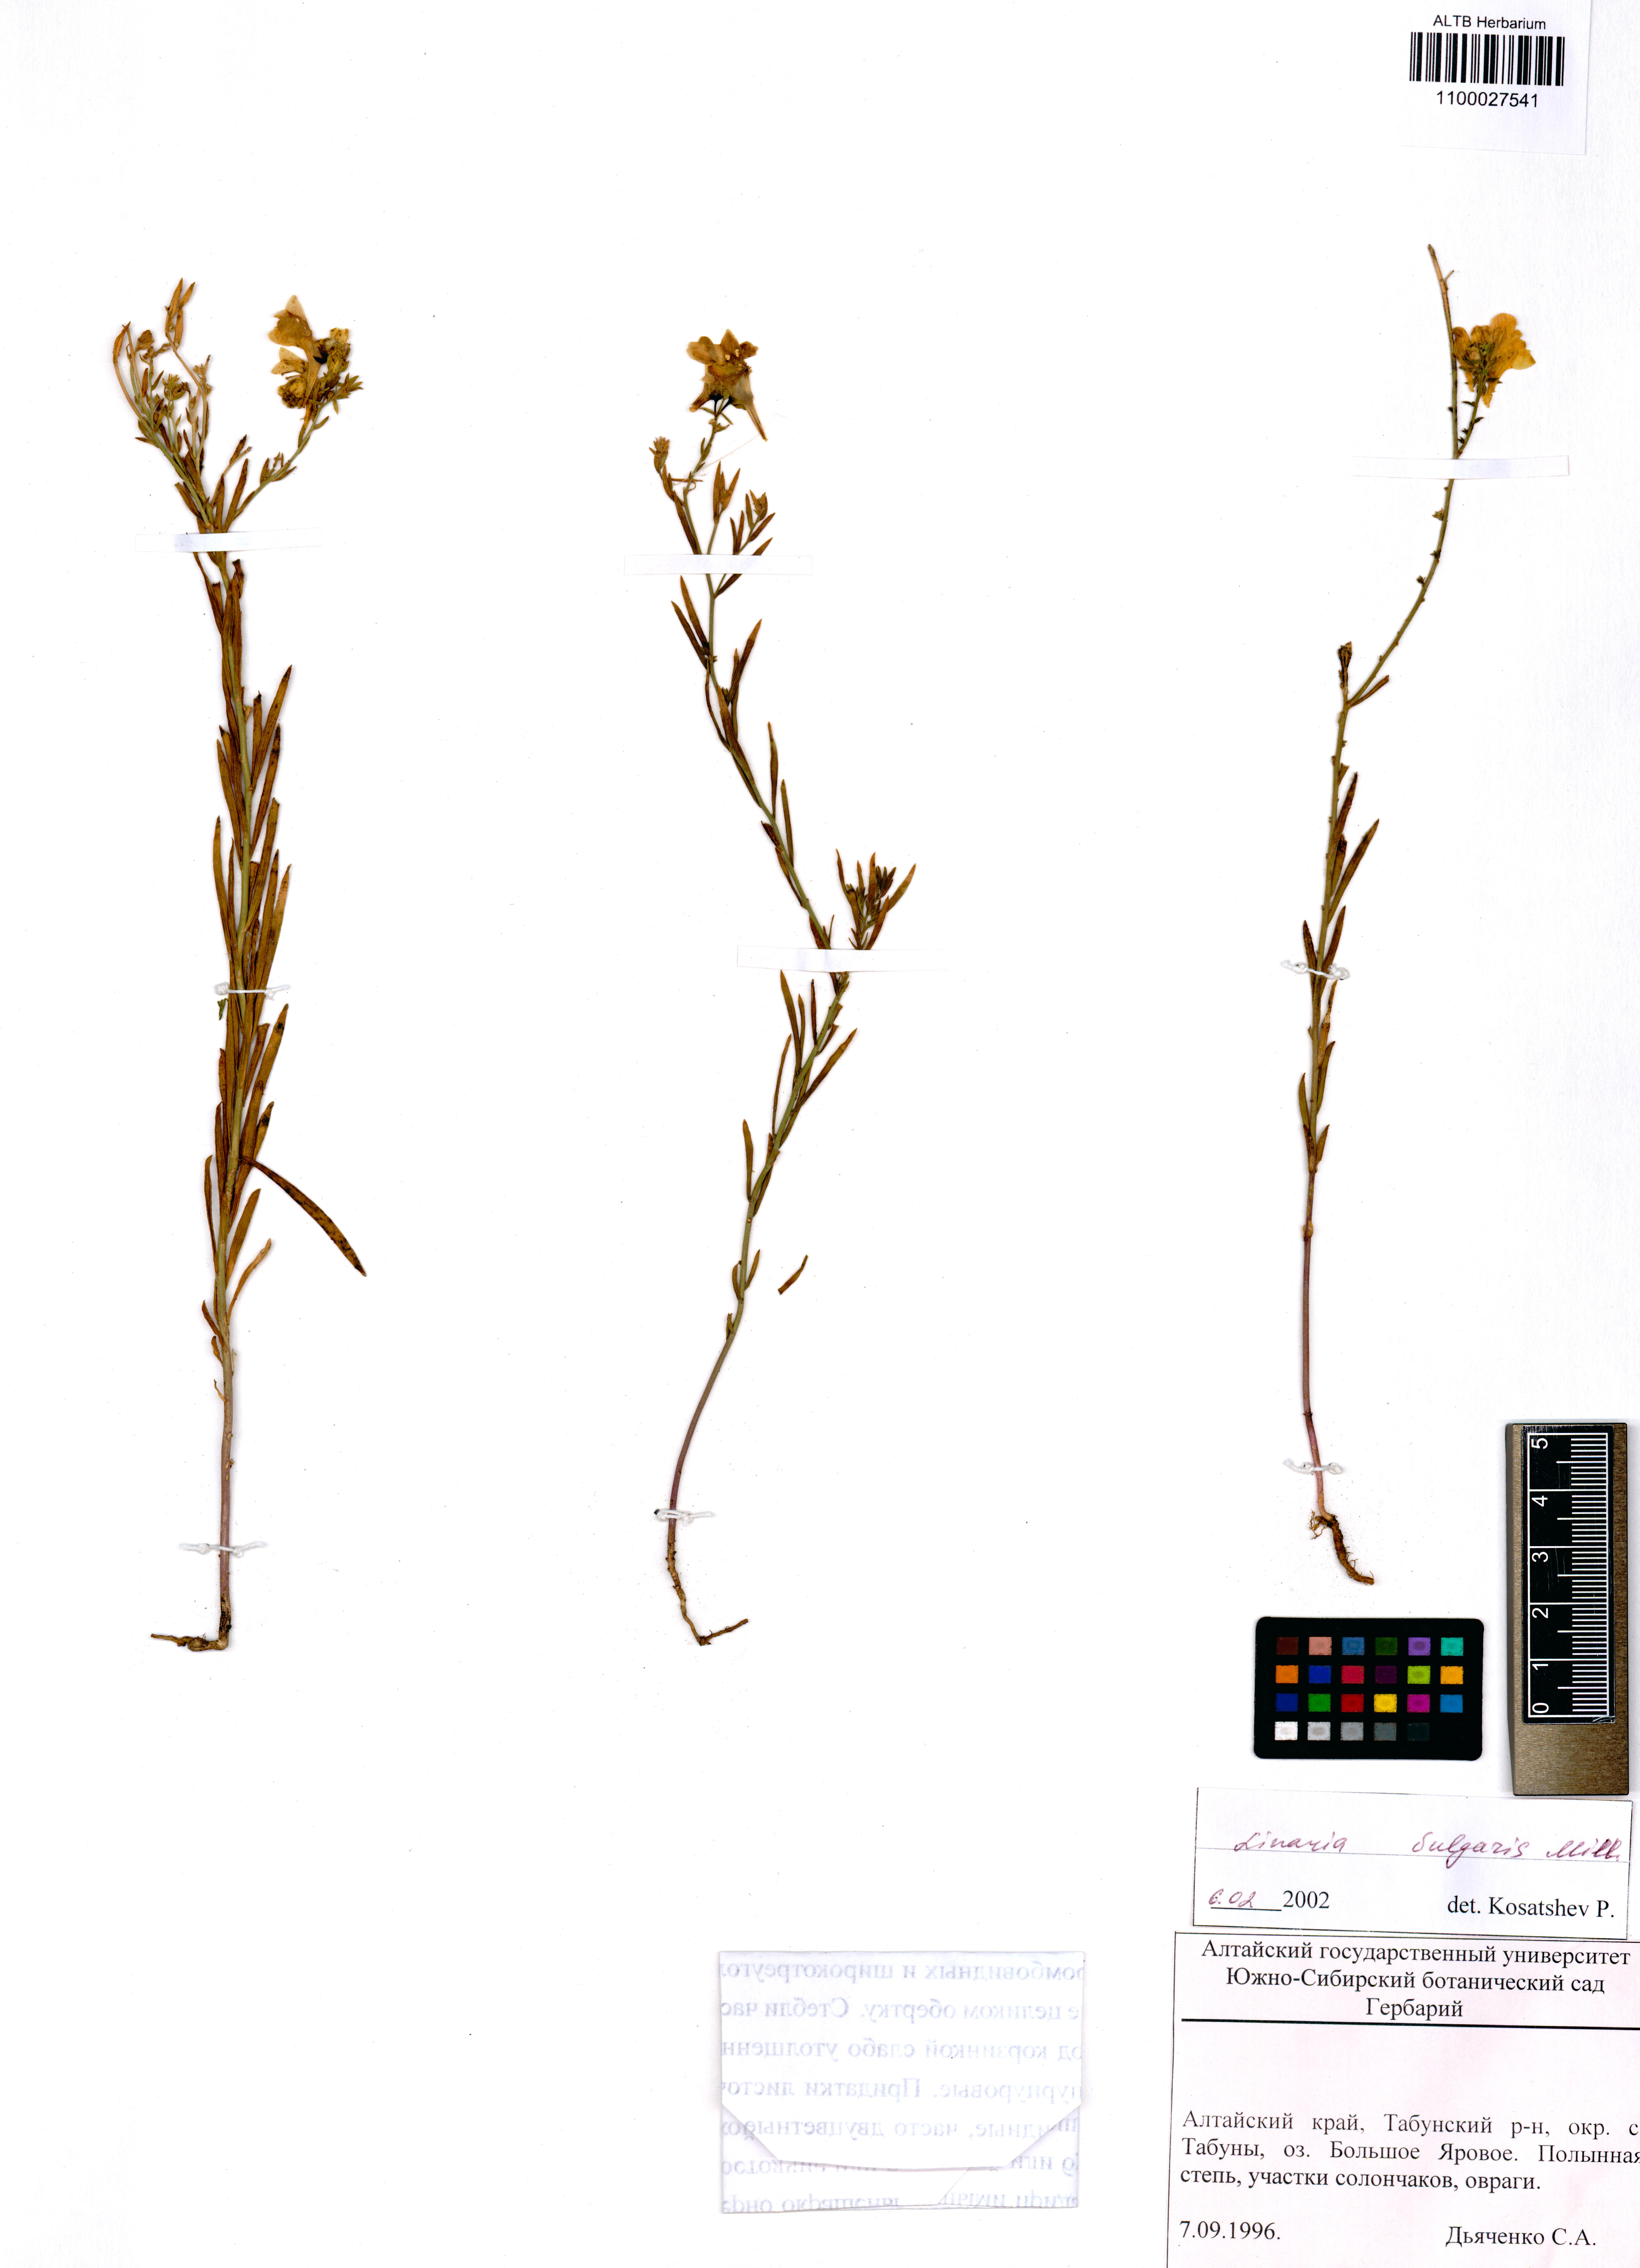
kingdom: Plantae
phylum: Tracheophyta
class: Magnoliopsida
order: Lamiales
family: Plantaginaceae
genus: Linaria
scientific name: Linaria vulgaris
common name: Butter and eggs
